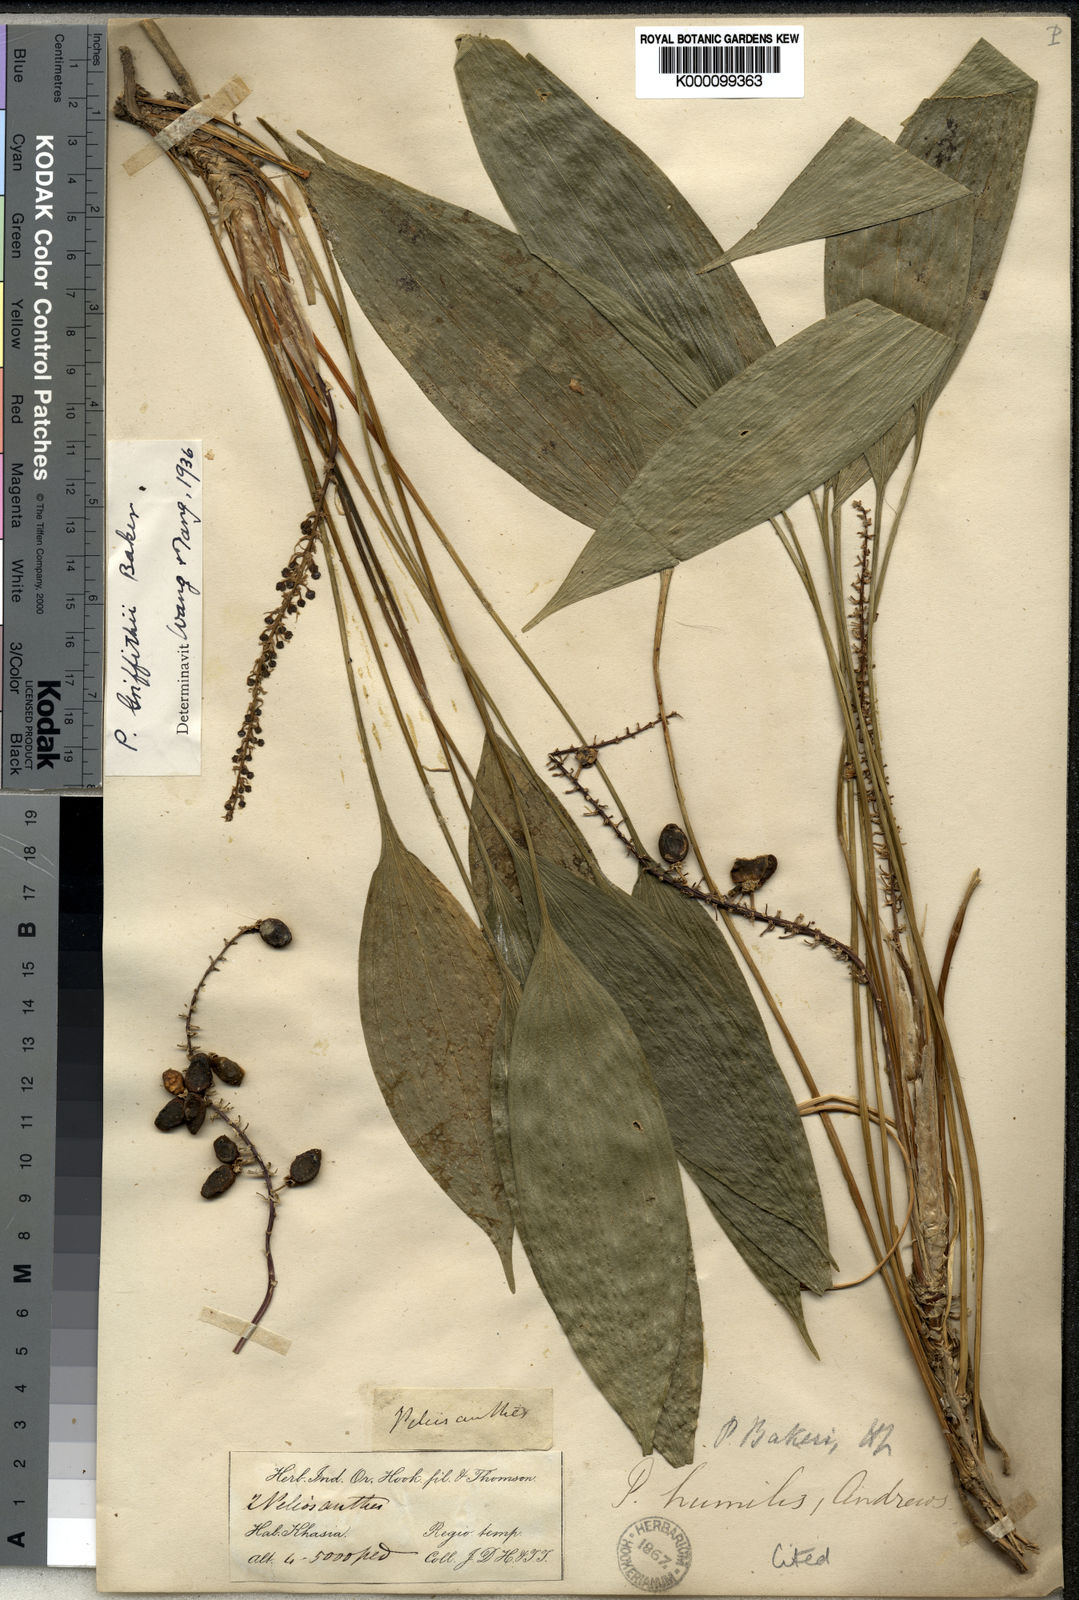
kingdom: Plantae
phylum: Tracheophyta
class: Liliopsida
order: Asparagales
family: Asparagaceae
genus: Peliosanthes
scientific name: Peliosanthes griffithii
